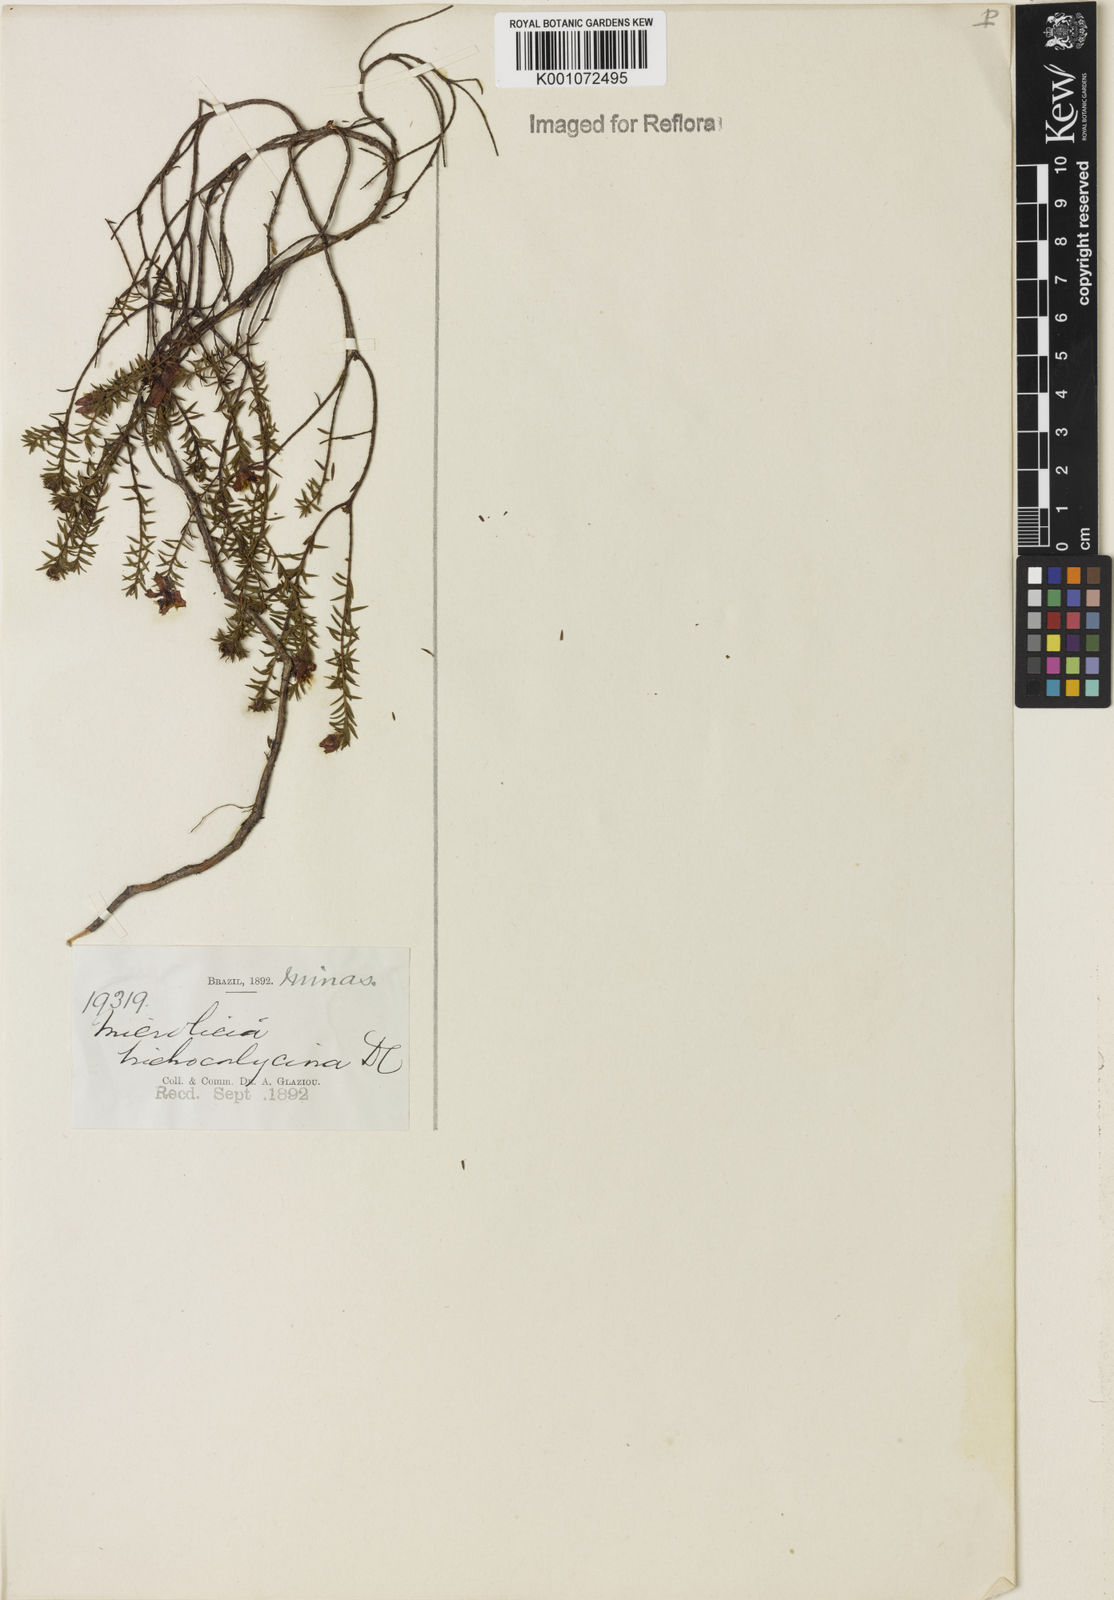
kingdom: Plantae
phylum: Tracheophyta
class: Magnoliopsida
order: Myrtales
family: Melastomataceae
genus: Microlicia
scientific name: Microlicia trichocalycina
